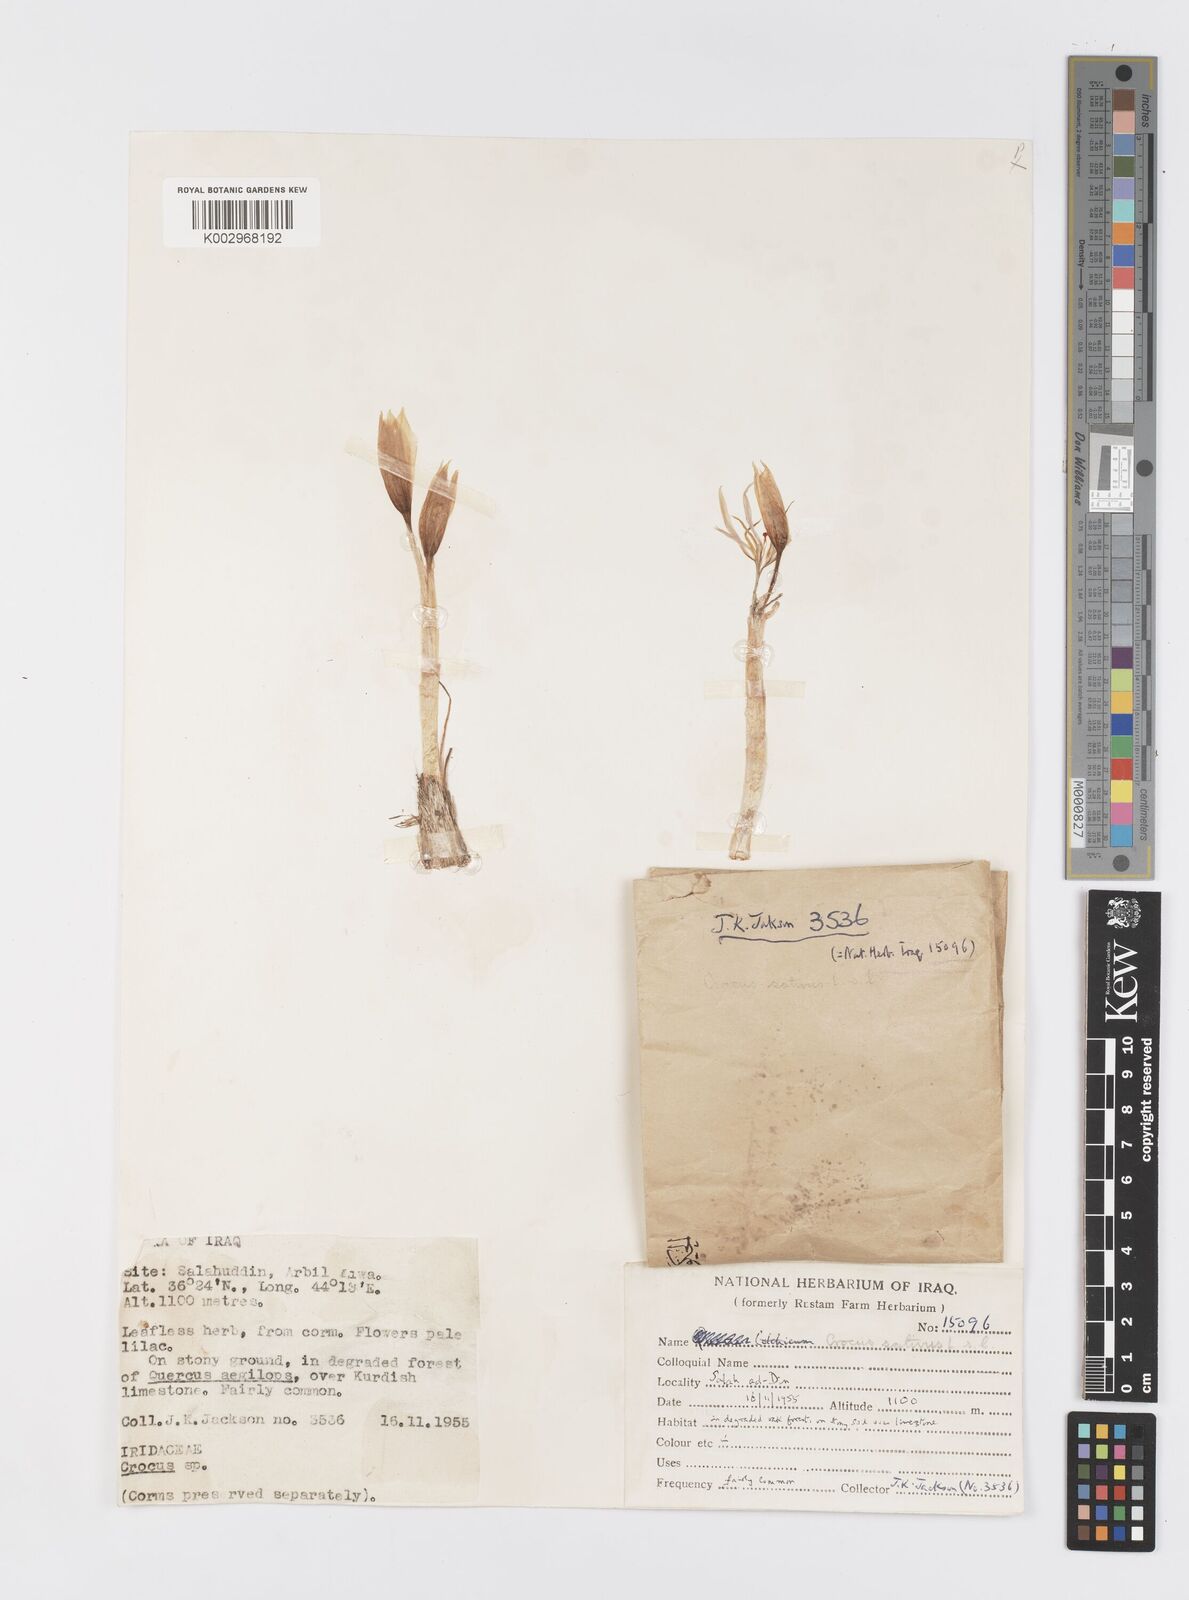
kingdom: Plantae
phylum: Tracheophyta
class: Liliopsida
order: Asparagales
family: Iridaceae
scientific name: Iridaceae
